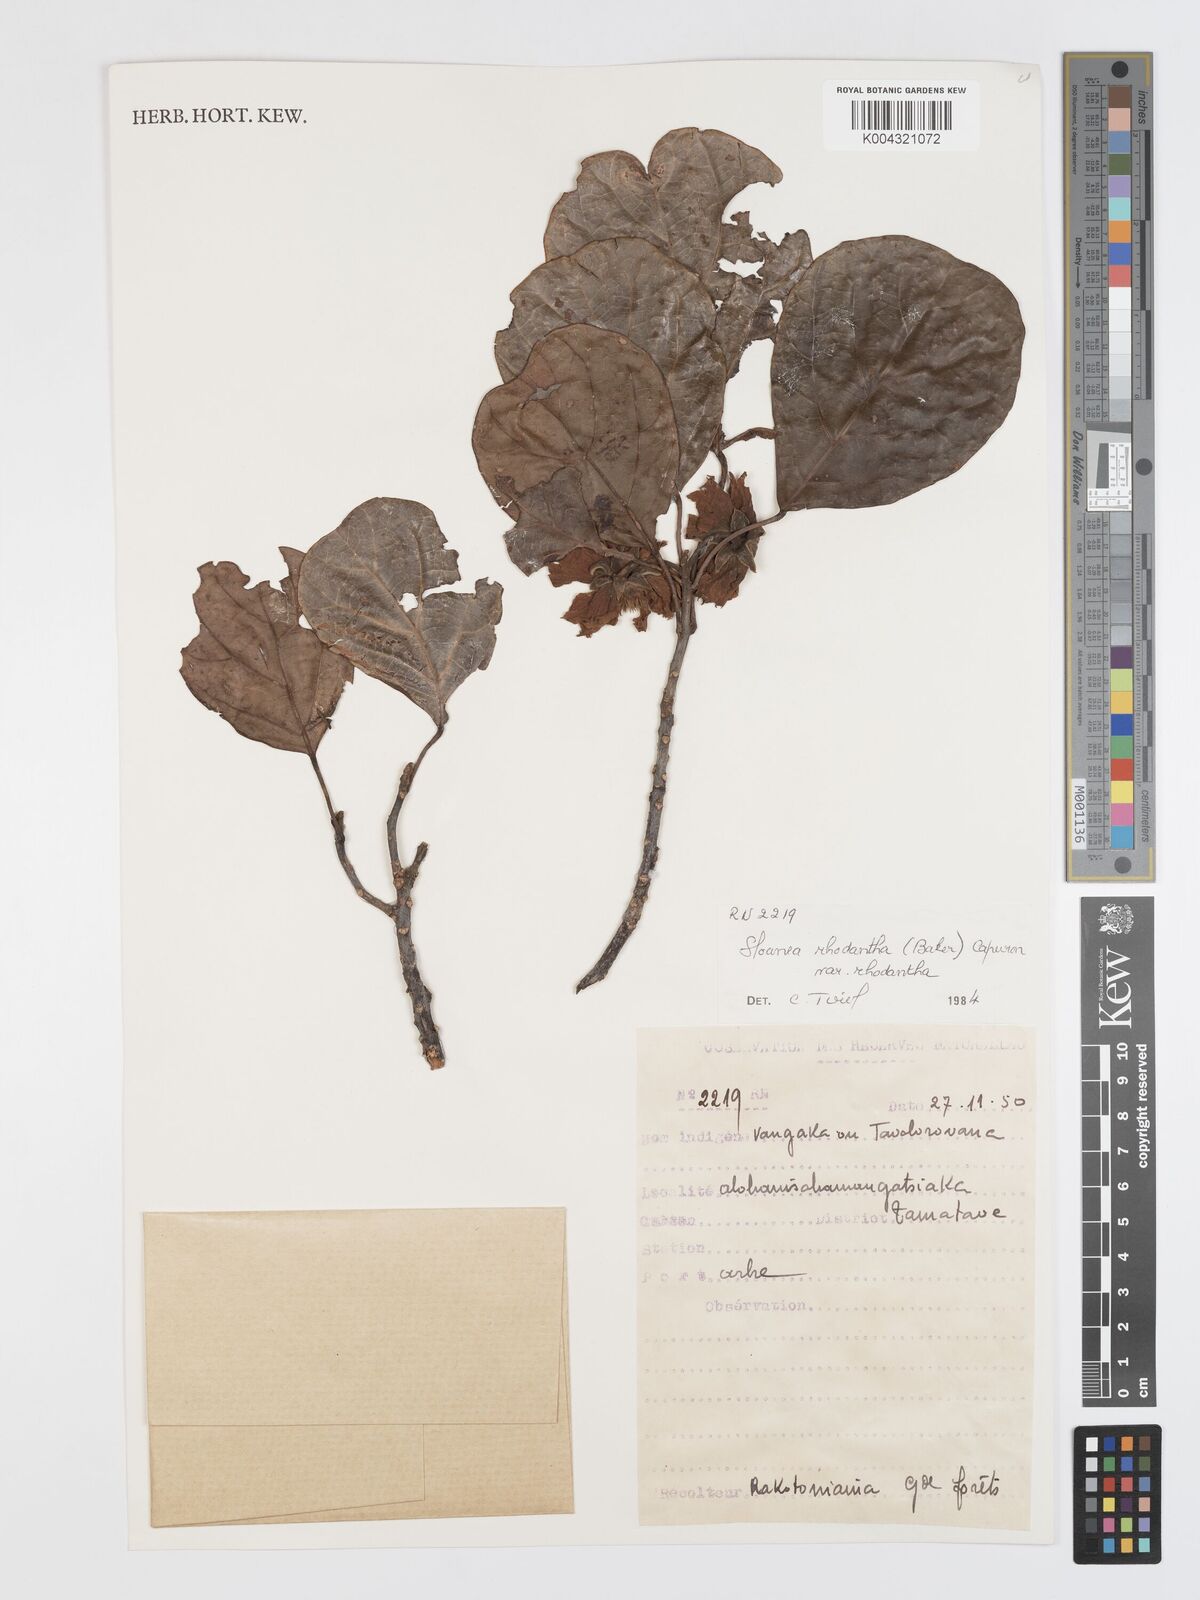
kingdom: Plantae
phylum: Tracheophyta
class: Magnoliopsida
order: Oxalidales
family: Elaeocarpaceae
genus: Sloanea
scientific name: Sloanea rhodantha
